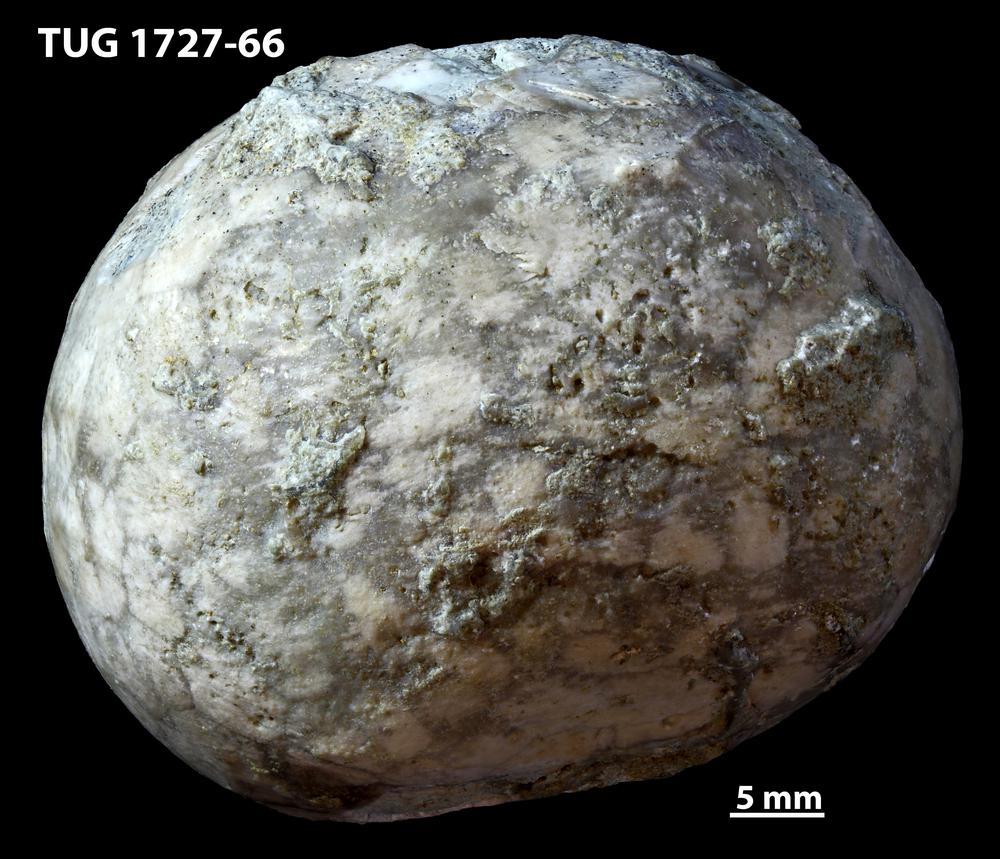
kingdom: Animalia
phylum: Echinodermata
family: Sphaeronitidae
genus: Eucystis
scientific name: Eucystis Glyptosphaerites leuchtenbergi
